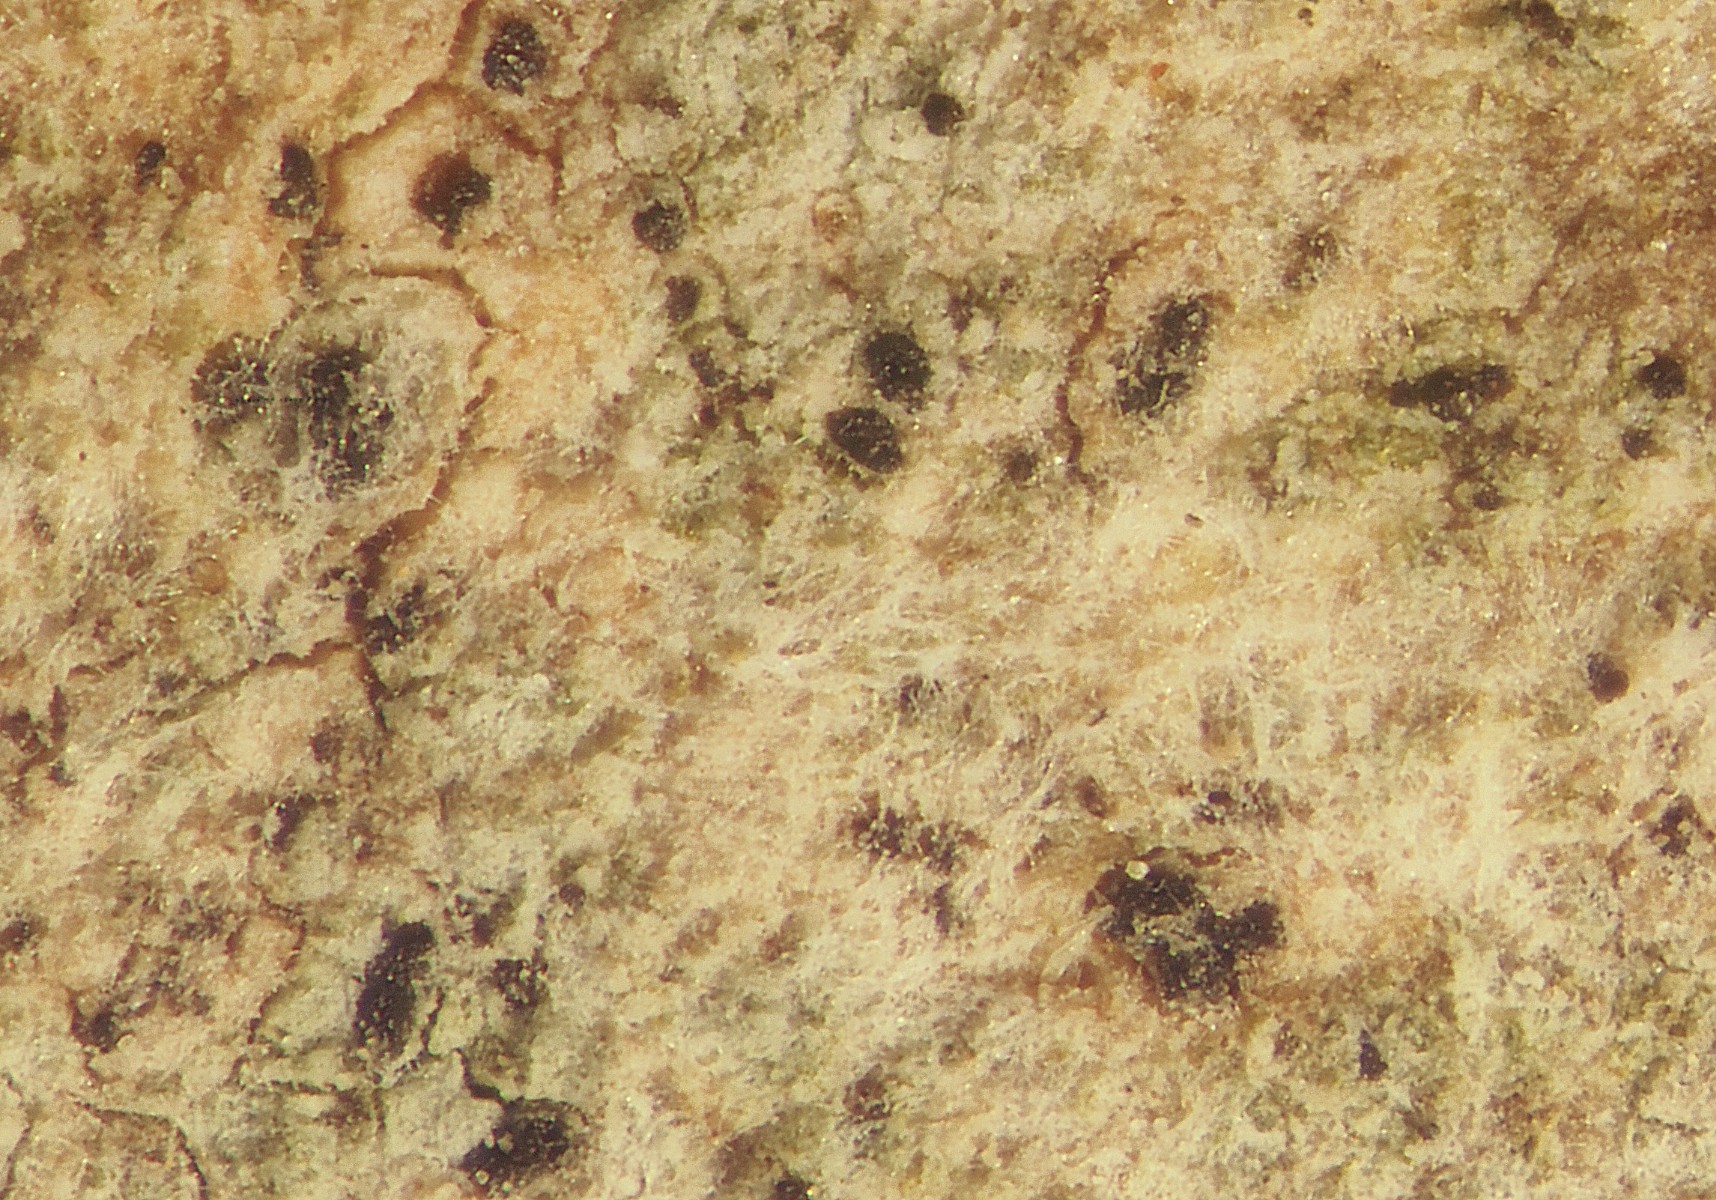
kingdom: Fungi
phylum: Ascomycota
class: Arthoniomycetes
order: Arthoniales
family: Roccellaceae
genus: Phacographa
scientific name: Phacographa zwackhii
